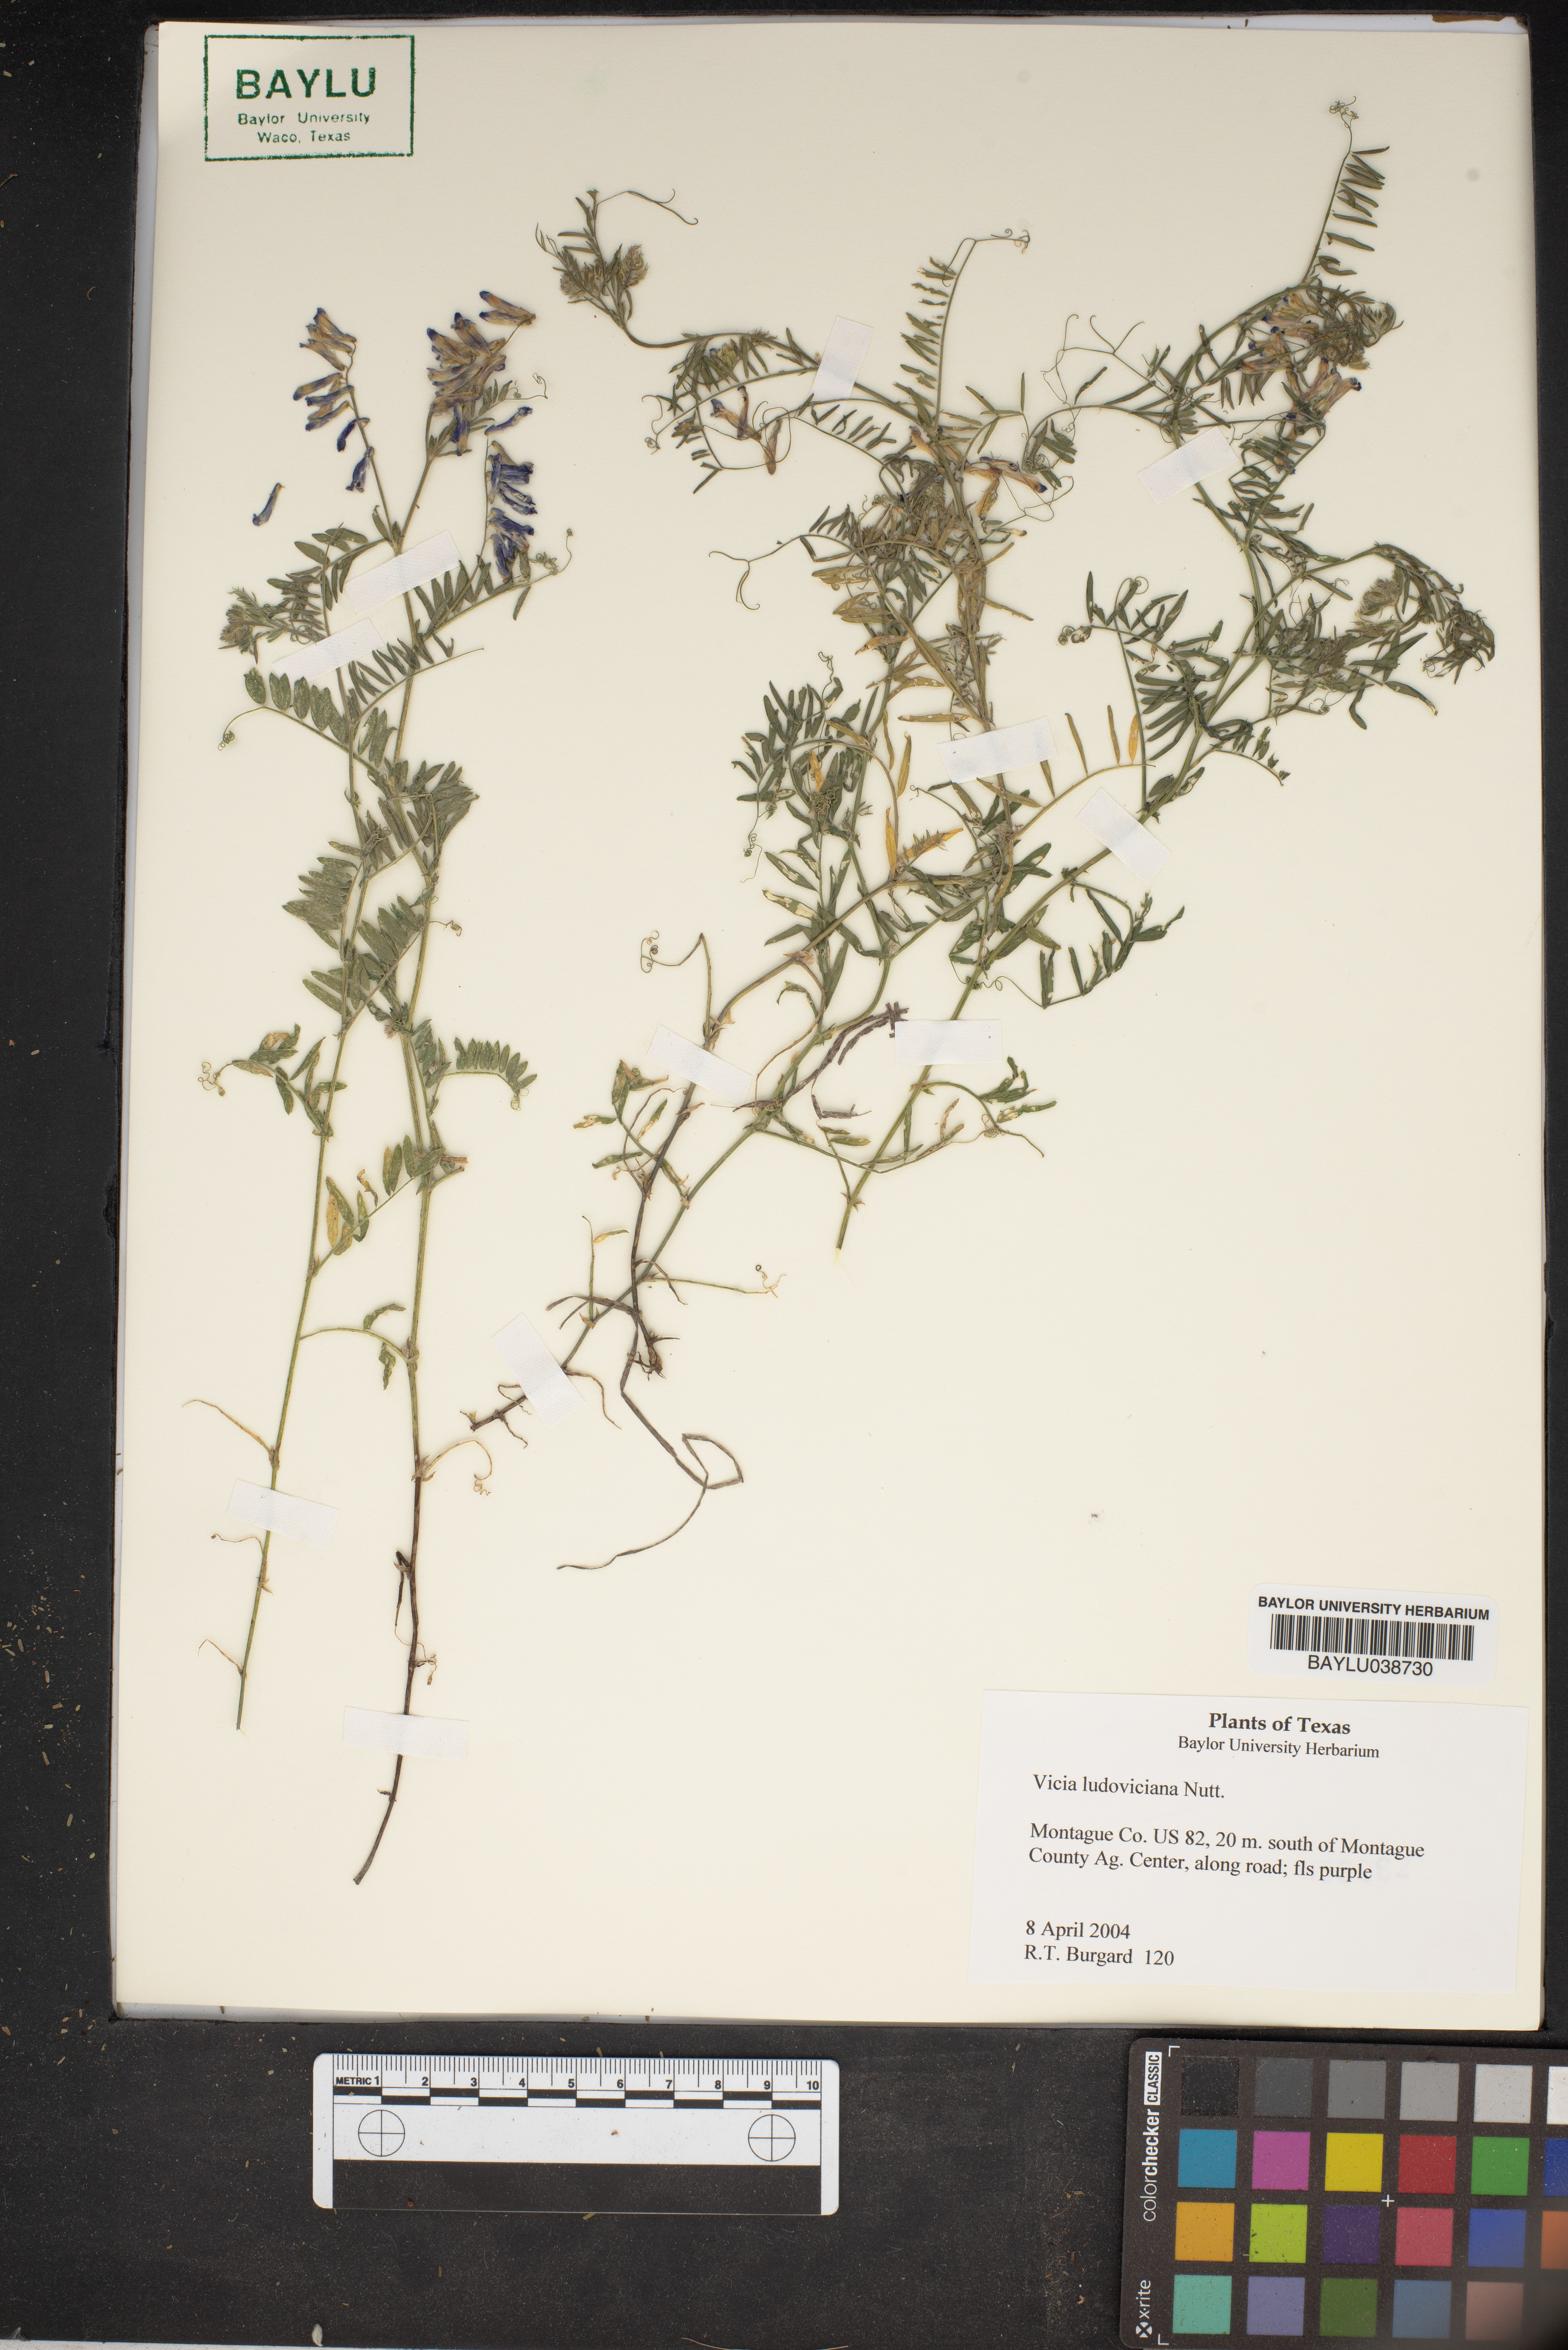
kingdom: Plantae
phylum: Tracheophyta
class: Magnoliopsida
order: Fabales
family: Fabaceae
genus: Vicia
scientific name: Vicia ludoviciana
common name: Louisiana vetch
